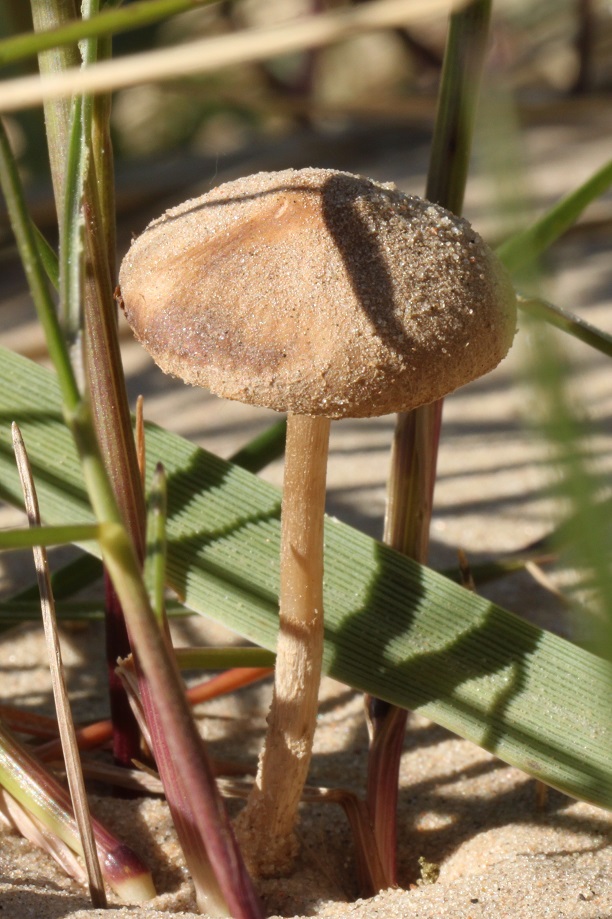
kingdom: Fungi
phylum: Basidiomycota
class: Agaricomycetes
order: Agaricales
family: Psathyrellaceae
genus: Psathyrella
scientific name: Psathyrella ammophila
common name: klit-mørkhat
